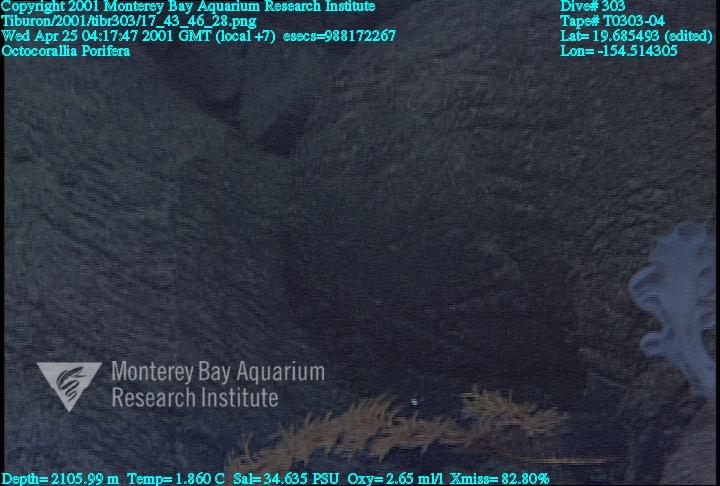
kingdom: Animalia
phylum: Porifera
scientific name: Porifera
